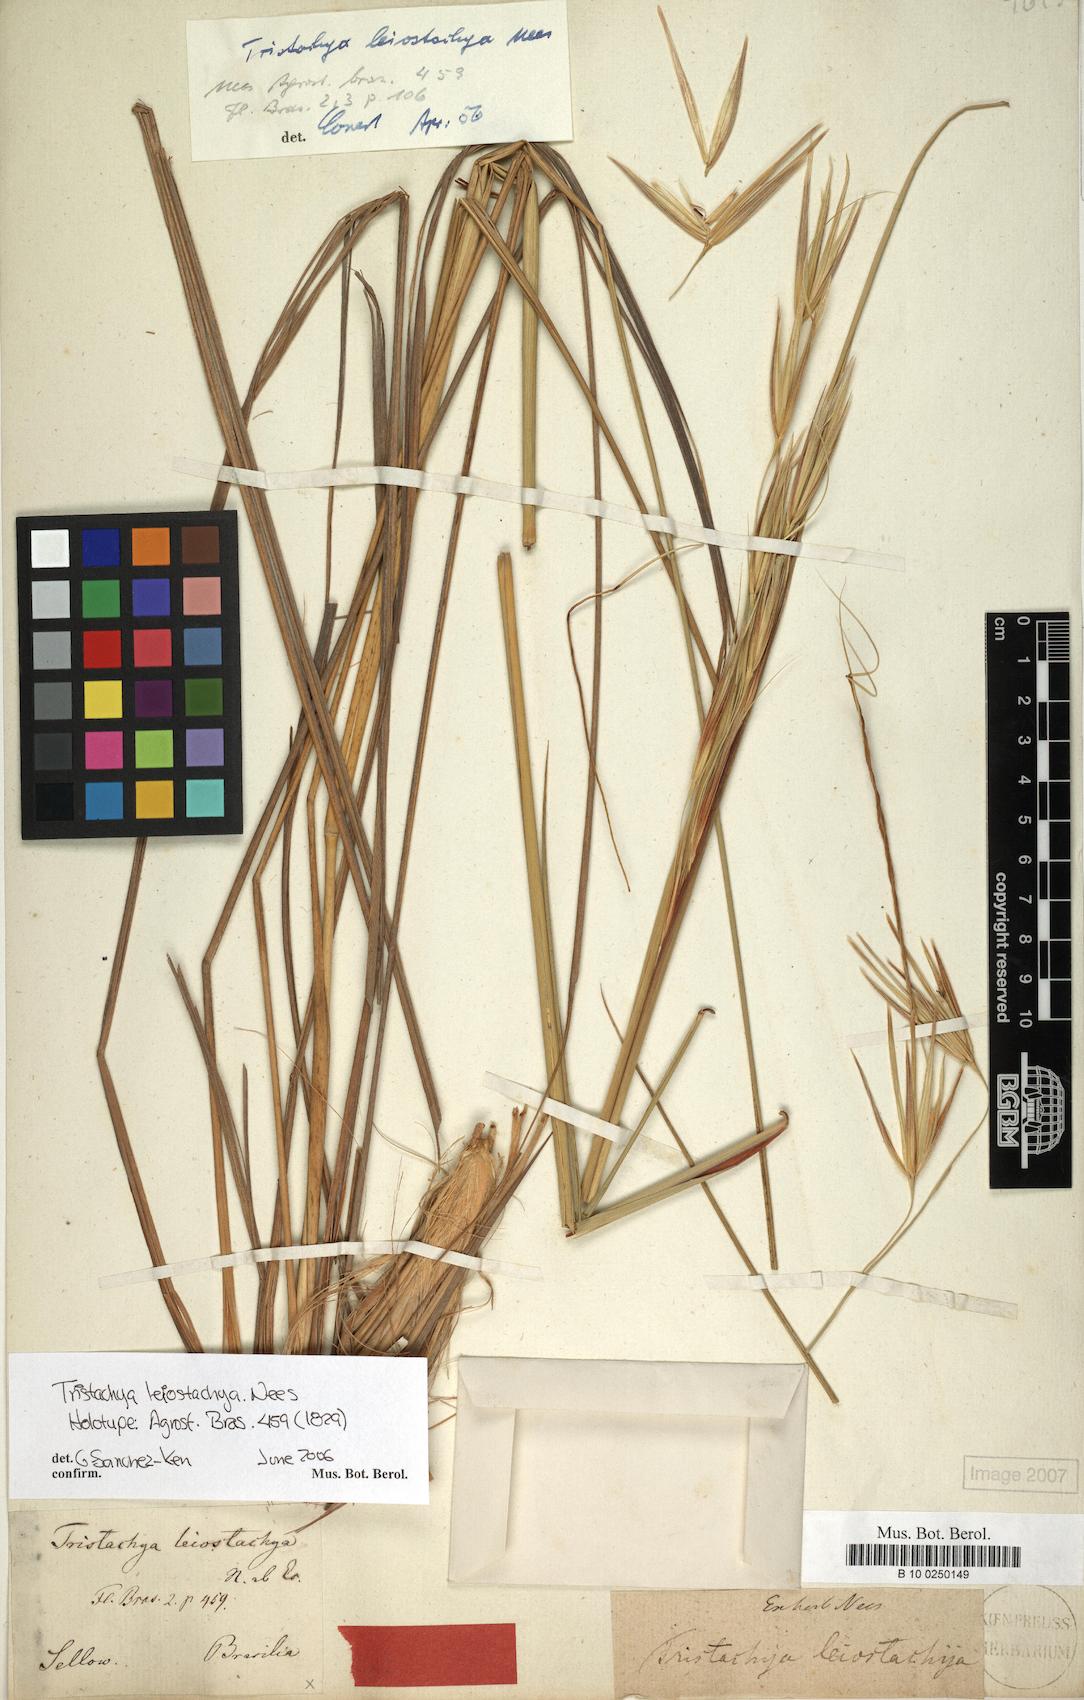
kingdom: Plantae
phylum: Tracheophyta
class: Liliopsida
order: Poales
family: Poaceae
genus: Tristachya
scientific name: Tristachya leiostachya
